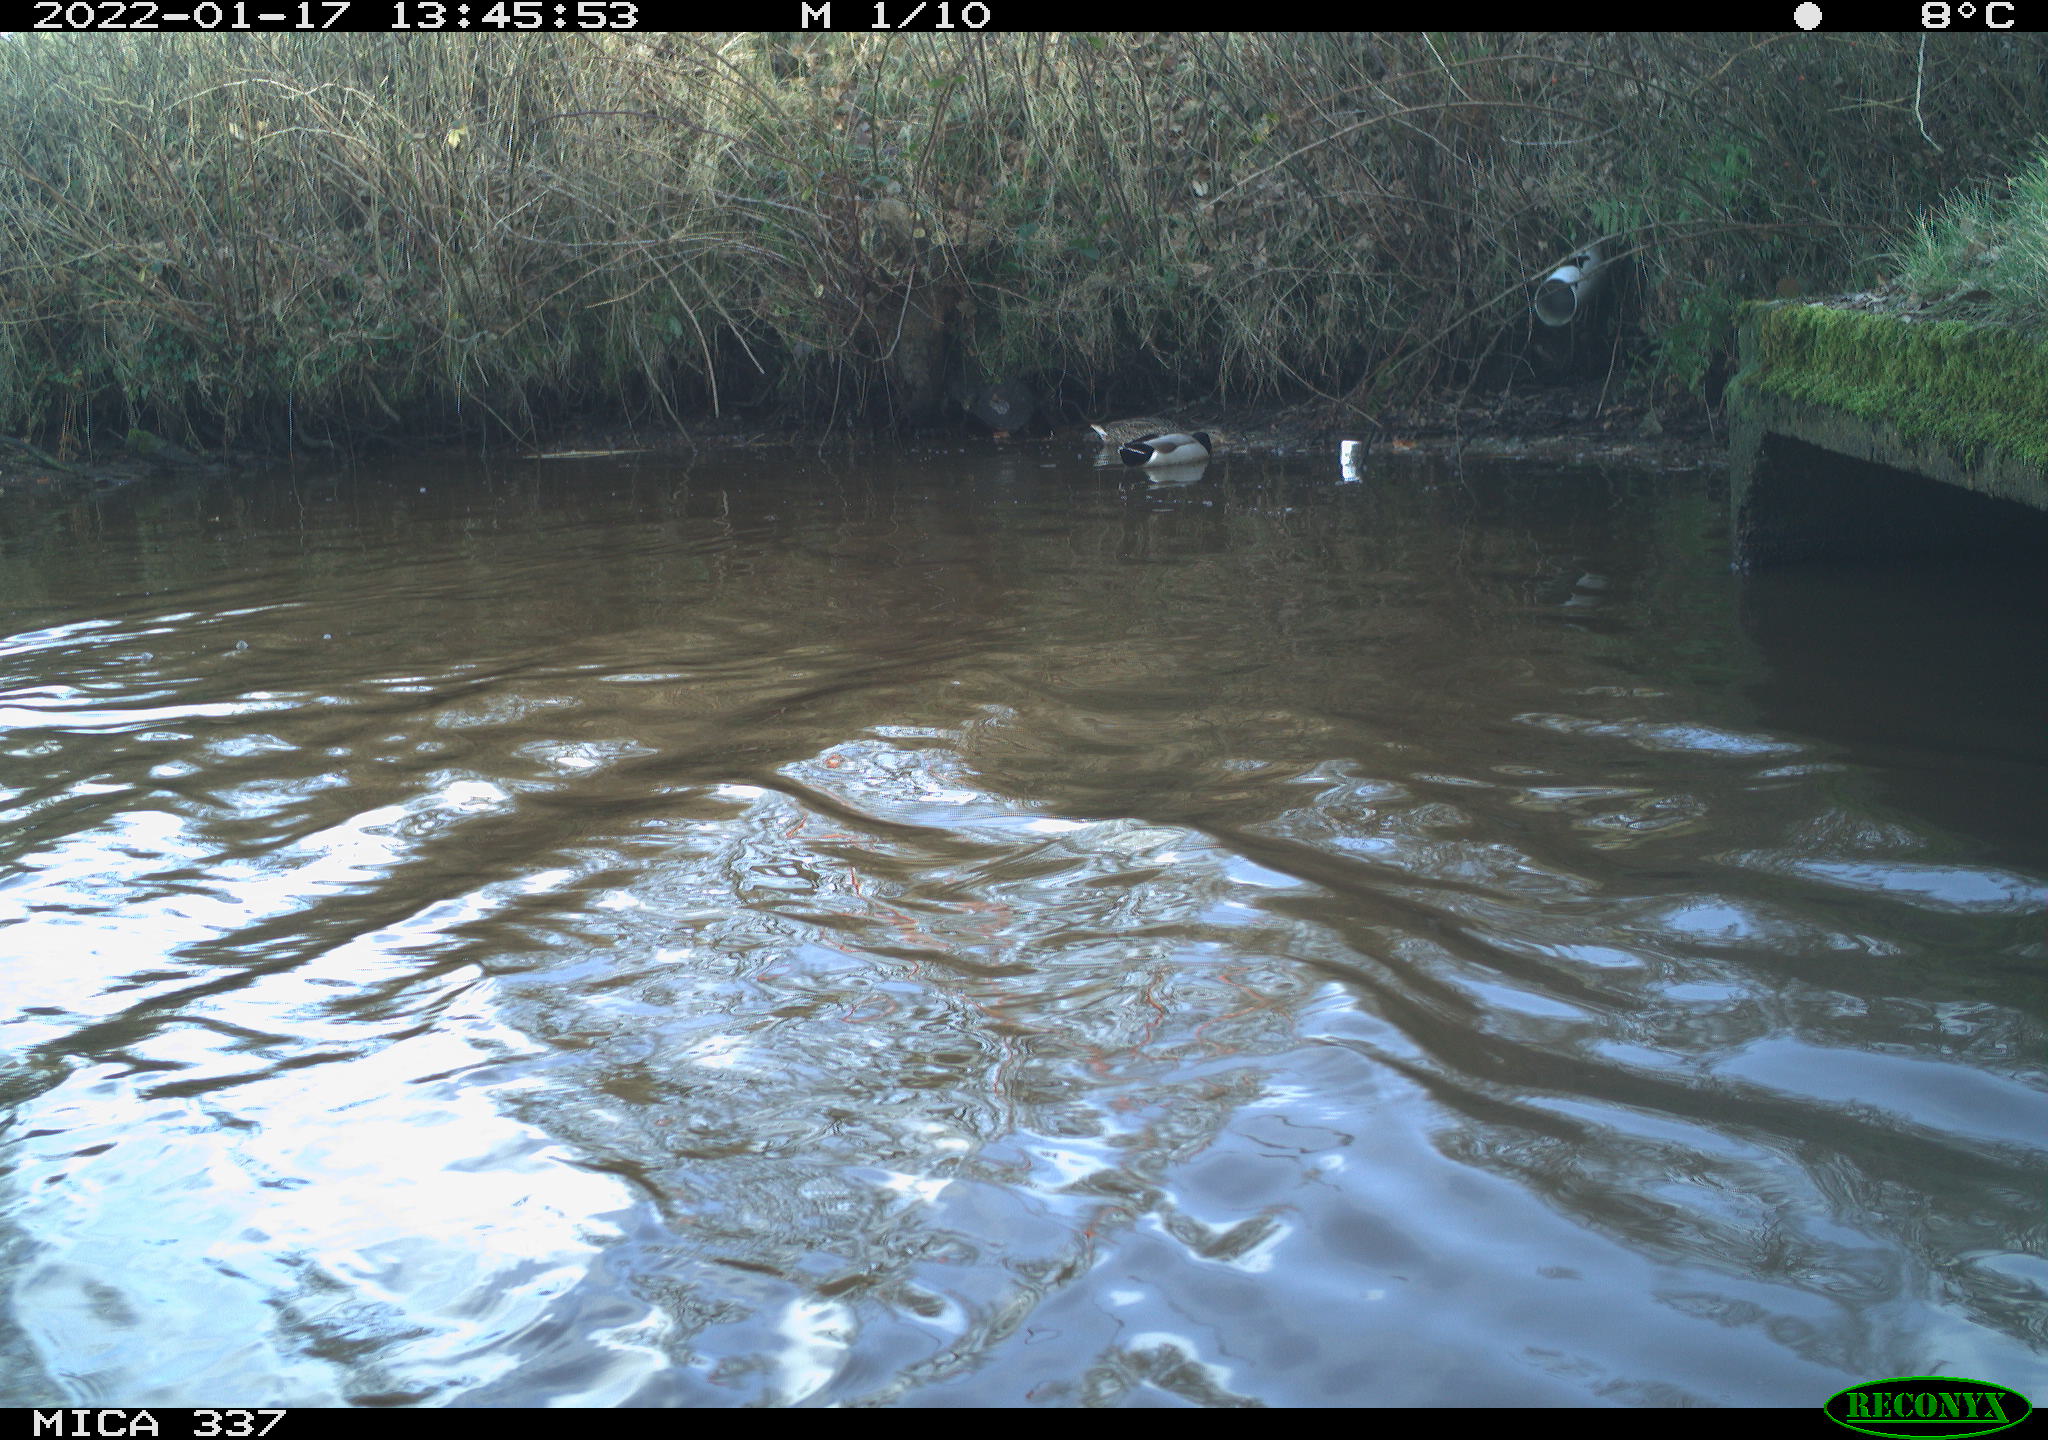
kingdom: Animalia
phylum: Chordata
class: Aves
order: Anseriformes
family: Anatidae
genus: Anas
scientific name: Anas platyrhynchos
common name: Mallard
